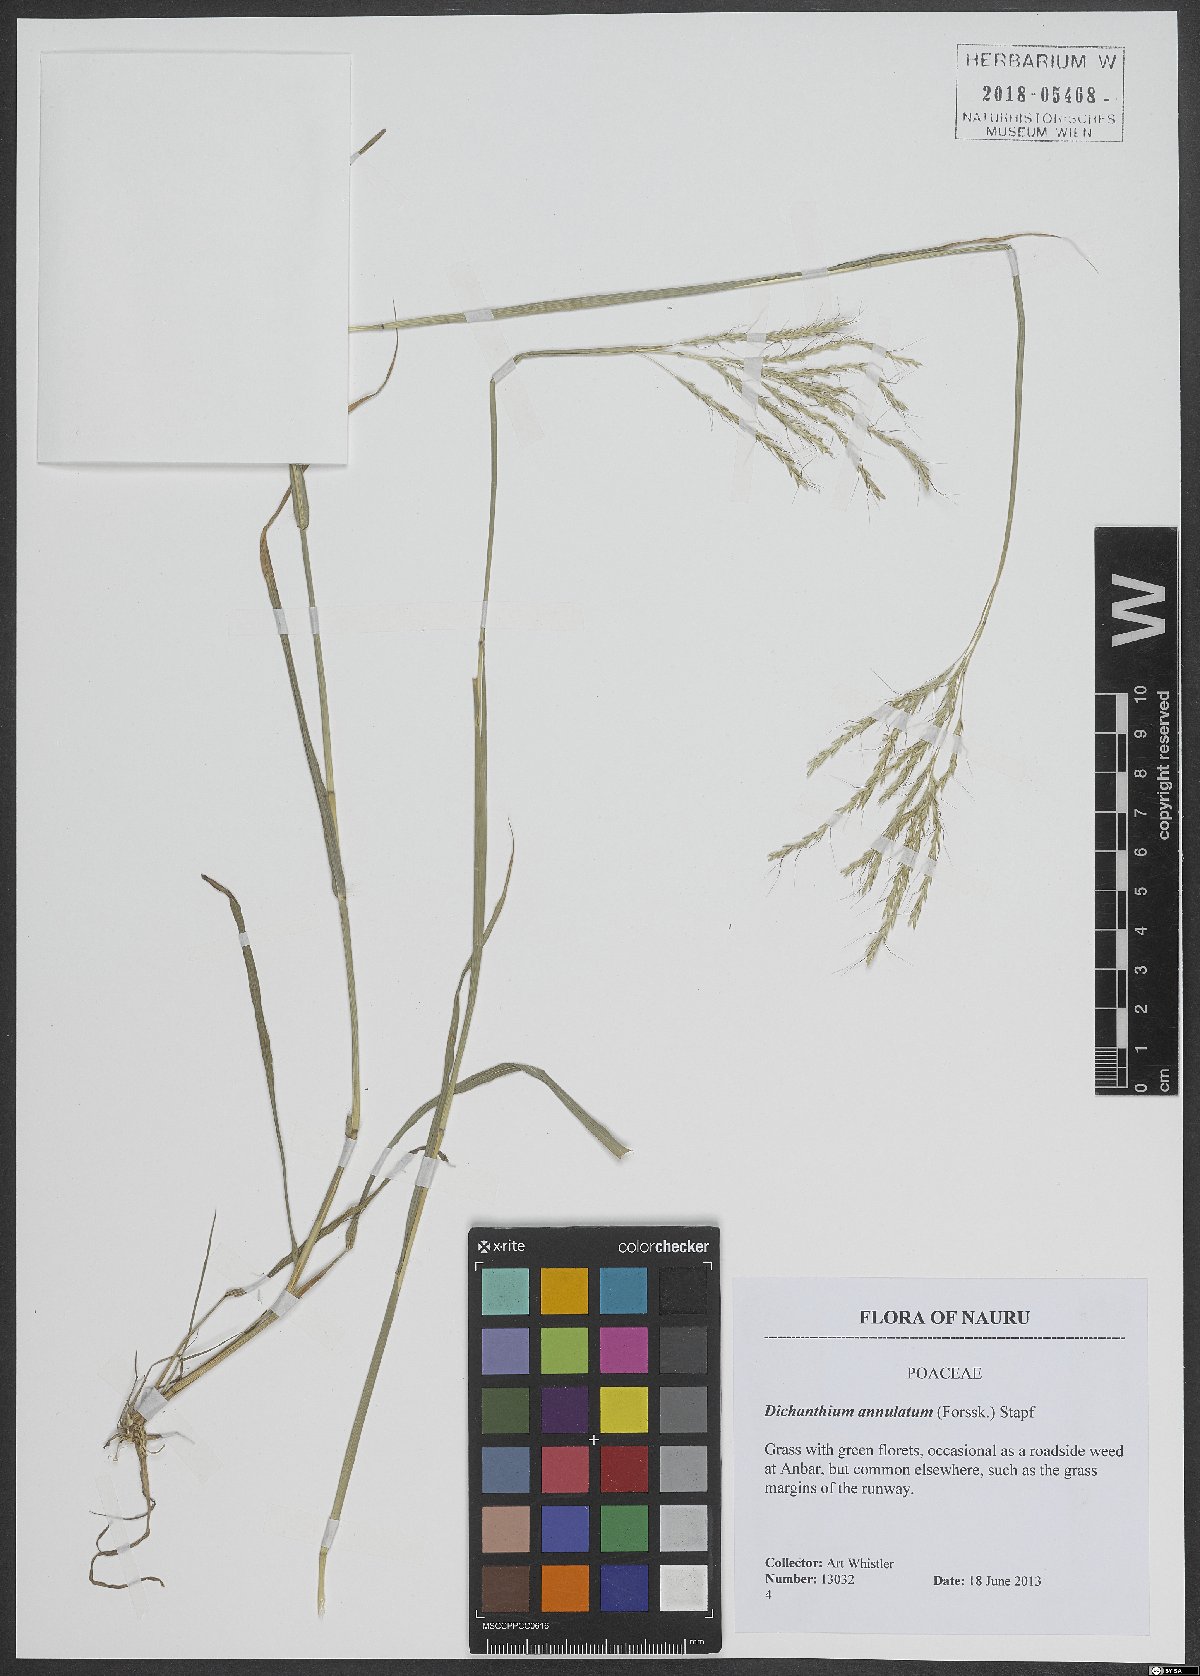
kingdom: Plantae
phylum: Tracheophyta
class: Liliopsida
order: Poales
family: Poaceae
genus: Dichanthium
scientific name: Dichanthium annulatum
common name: Kleberg's bluestem
